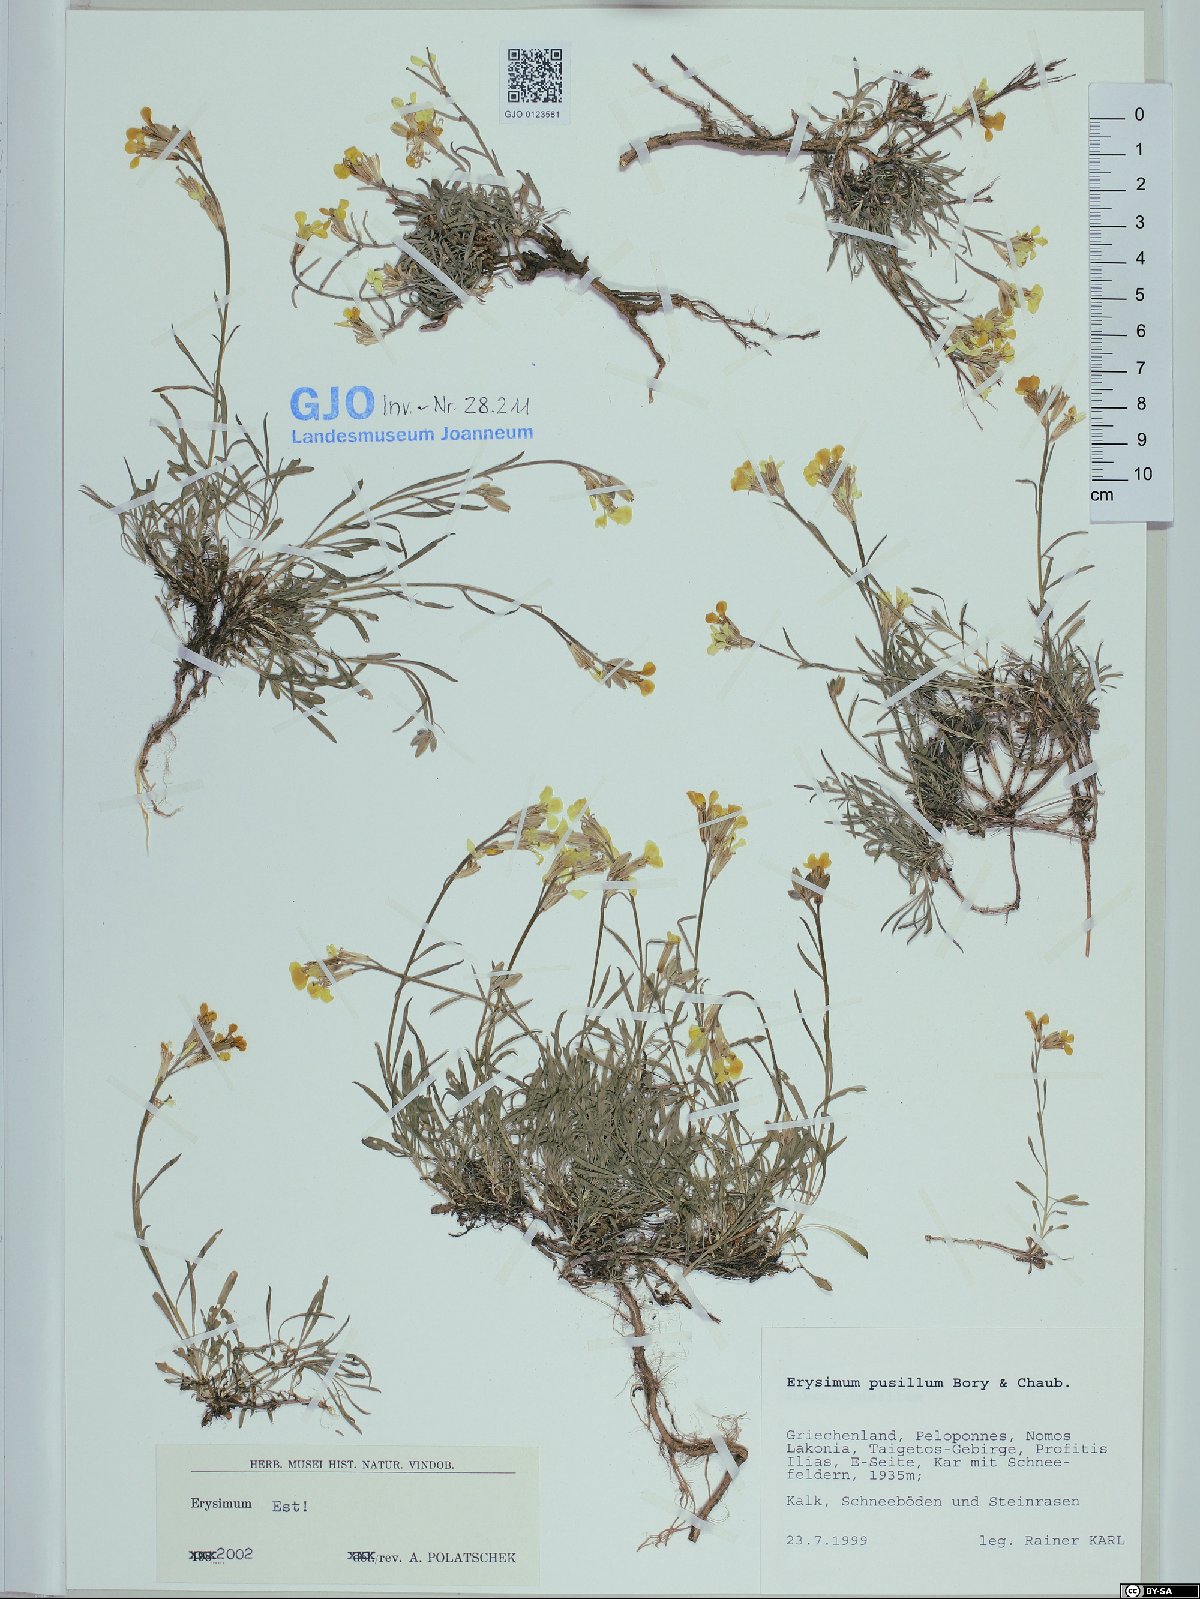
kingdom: Plantae
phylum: Tracheophyta
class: Magnoliopsida
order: Brassicales
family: Brassicaceae
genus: Erysimum
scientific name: Erysimum pusillum
